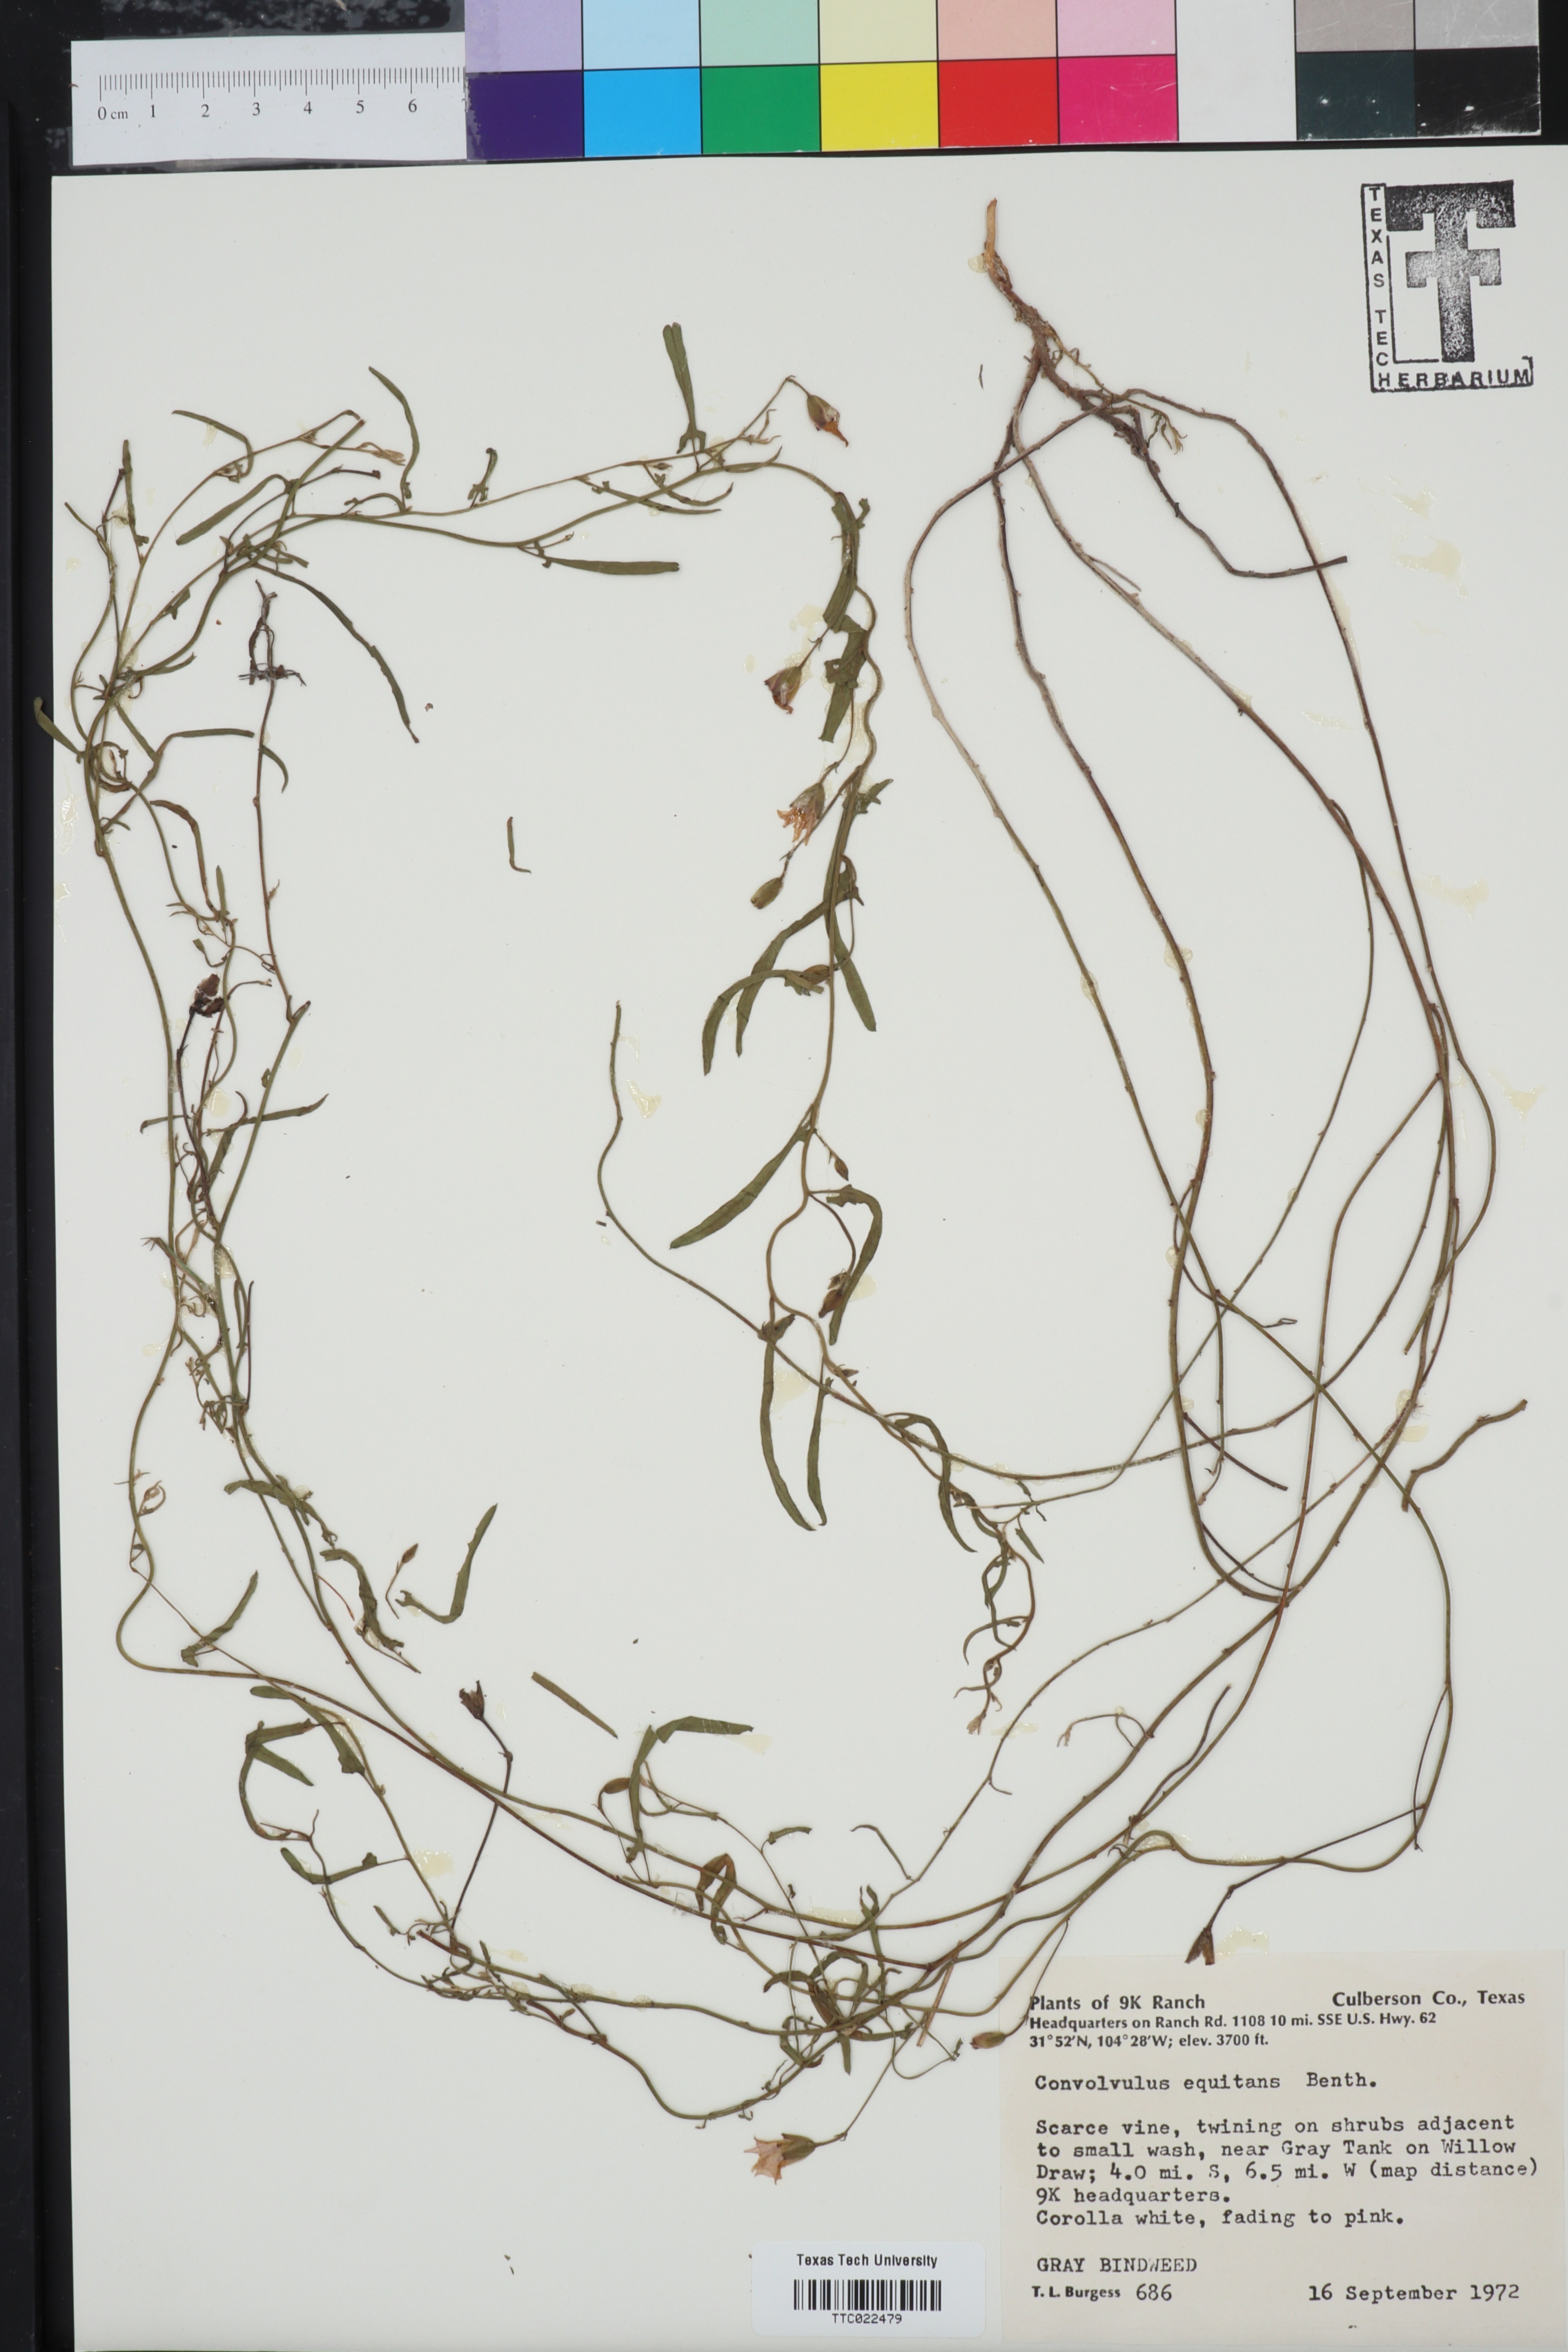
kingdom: Plantae
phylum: Tracheophyta
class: Magnoliopsida
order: Solanales
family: Convolvulaceae
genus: Convolvulus
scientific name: Convolvulus equitans
